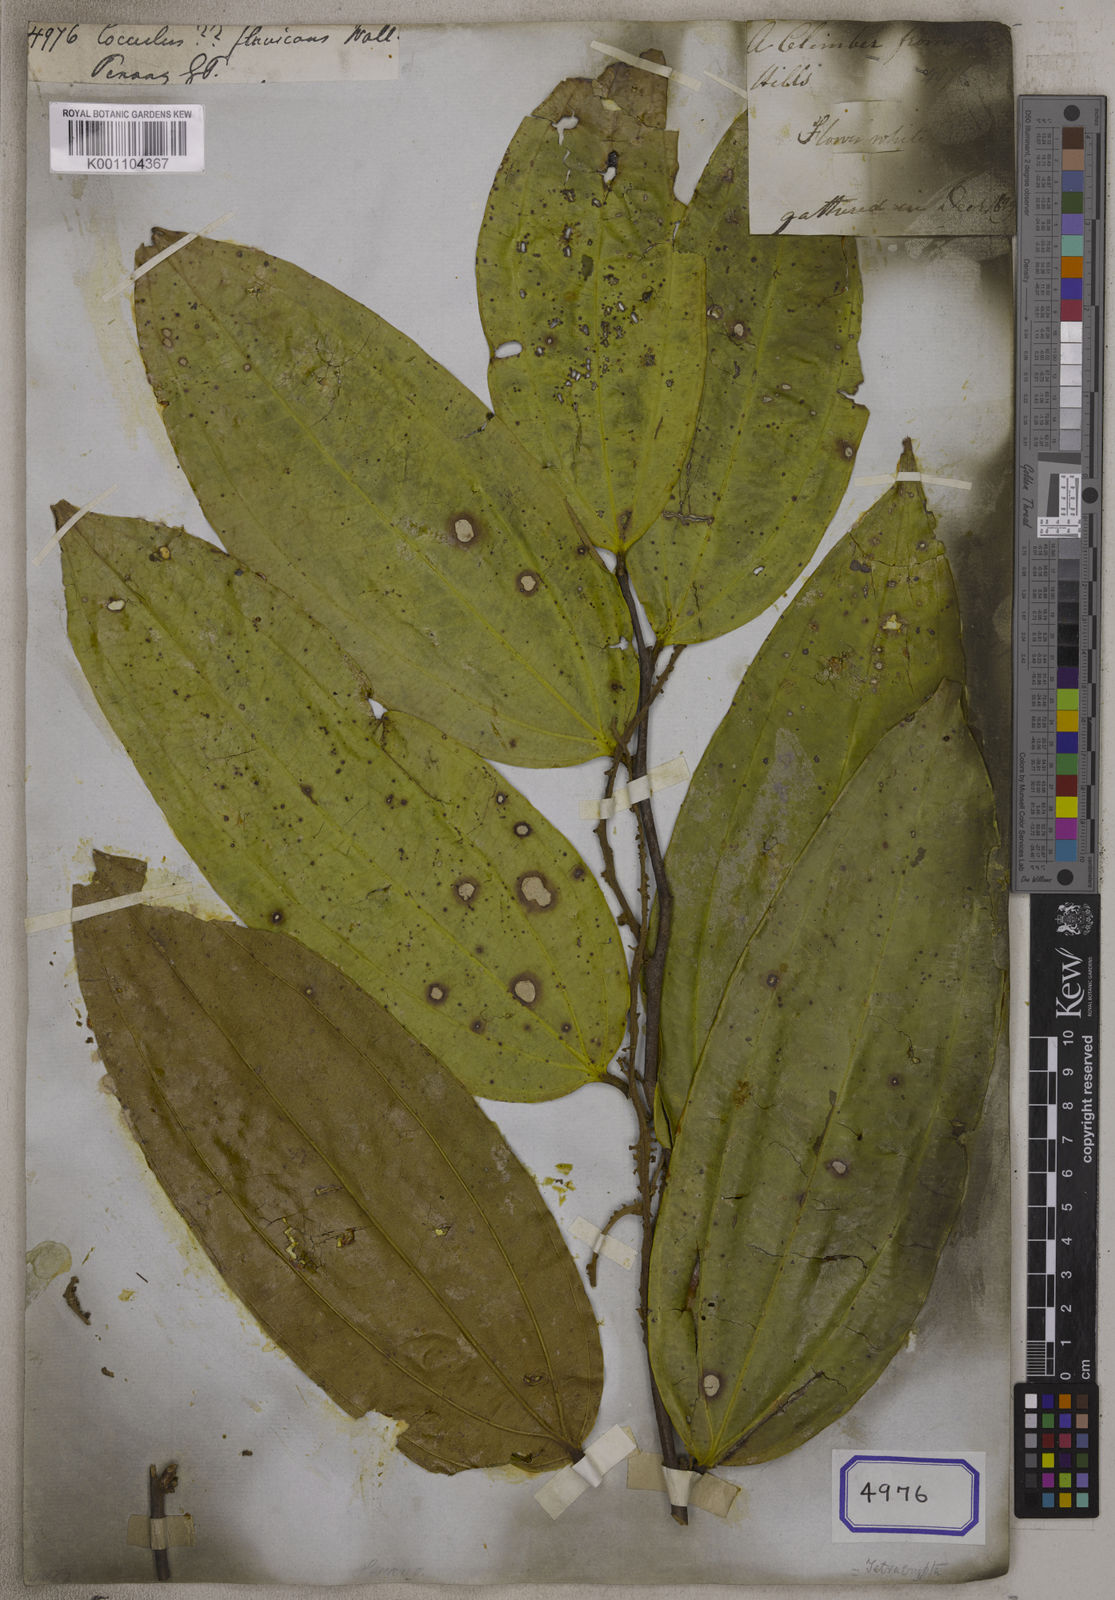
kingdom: Plantae
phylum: Tracheophyta
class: Magnoliopsida
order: Ranunculales
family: Menispermaceae
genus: Cocculus
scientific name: Cocculus flavicans
